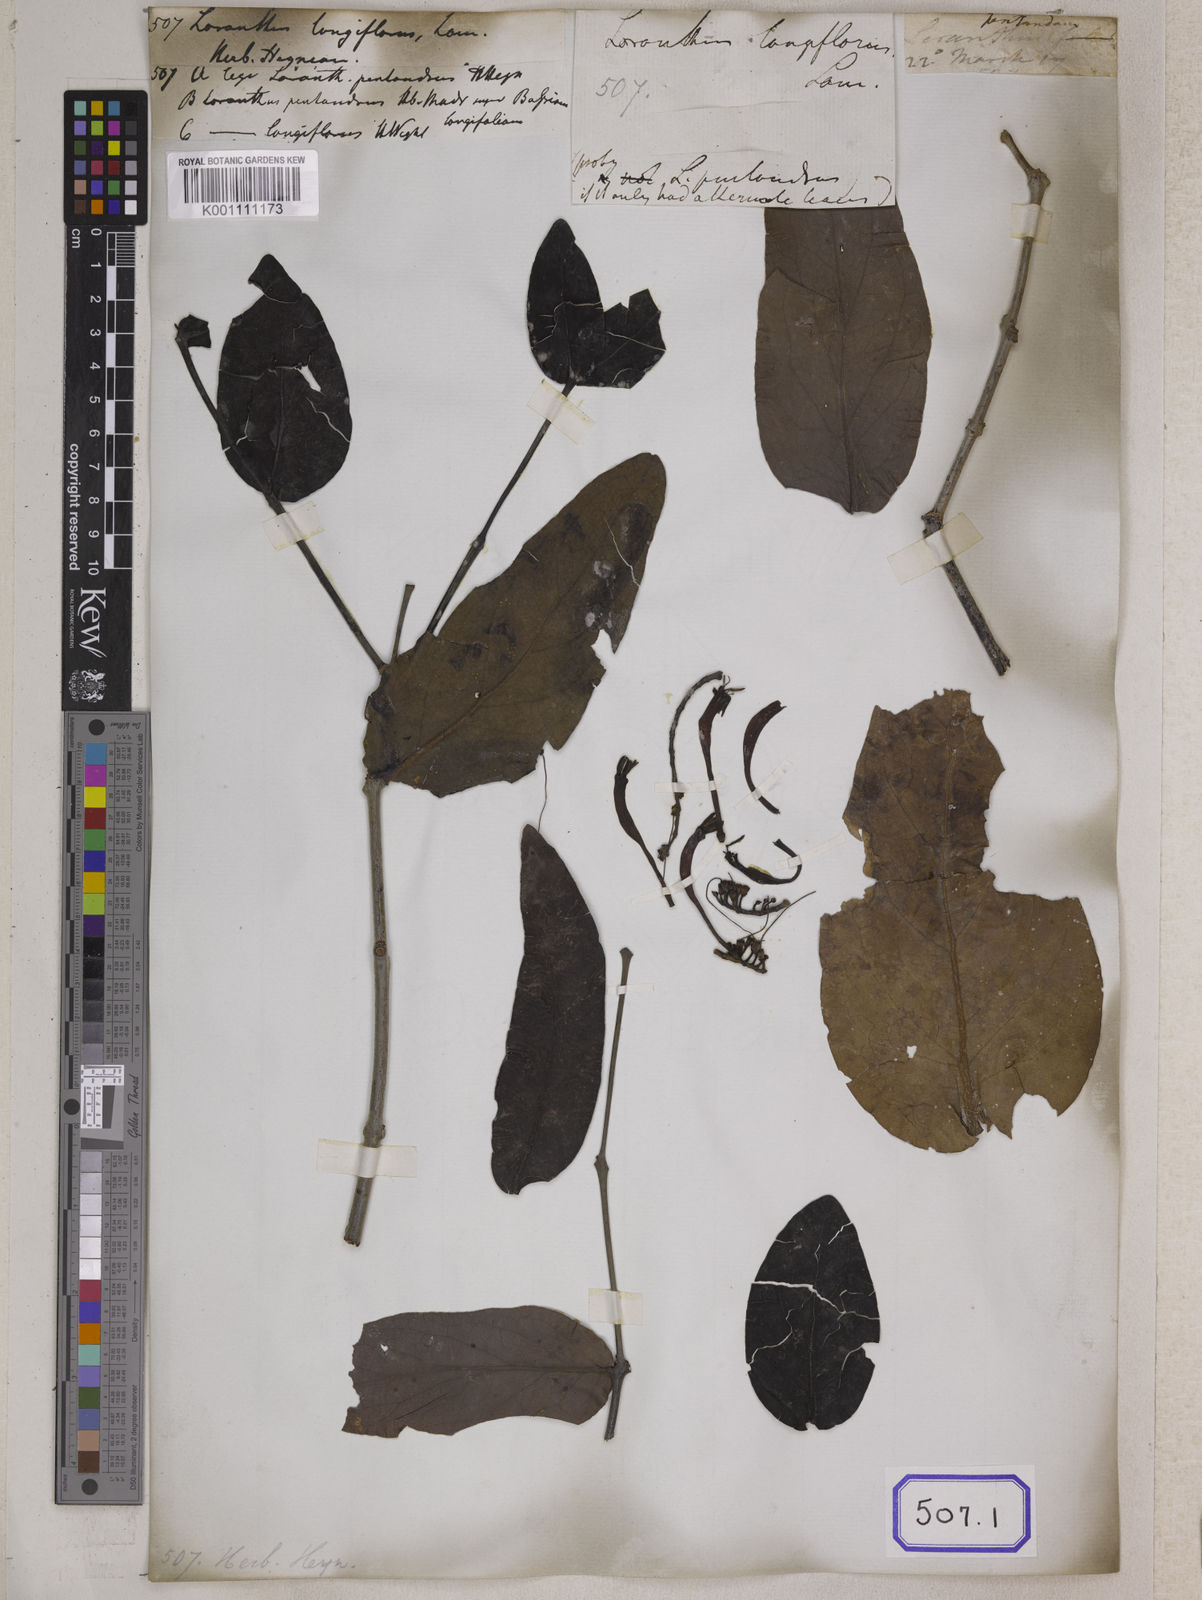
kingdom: Plantae
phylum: Tracheophyta
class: Magnoliopsida
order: Santalales
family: Loranthaceae
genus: Loranthus
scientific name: Loranthus
